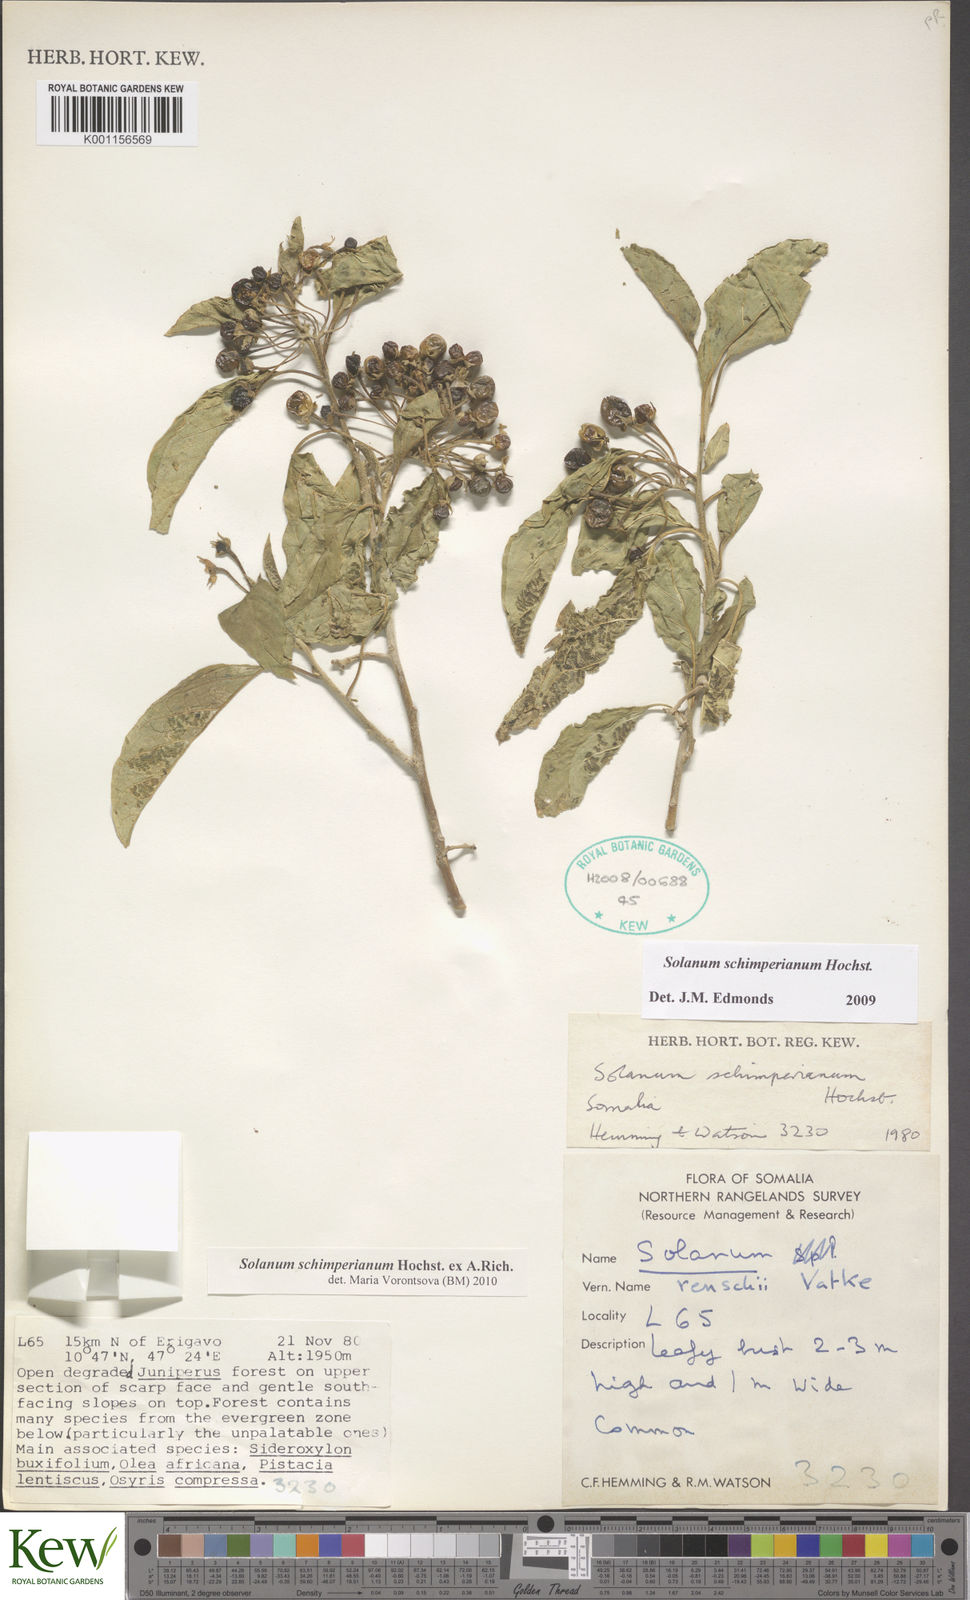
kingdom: Plantae
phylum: Tracheophyta
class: Magnoliopsida
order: Solanales
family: Solanaceae
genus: Solanum
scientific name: Solanum
